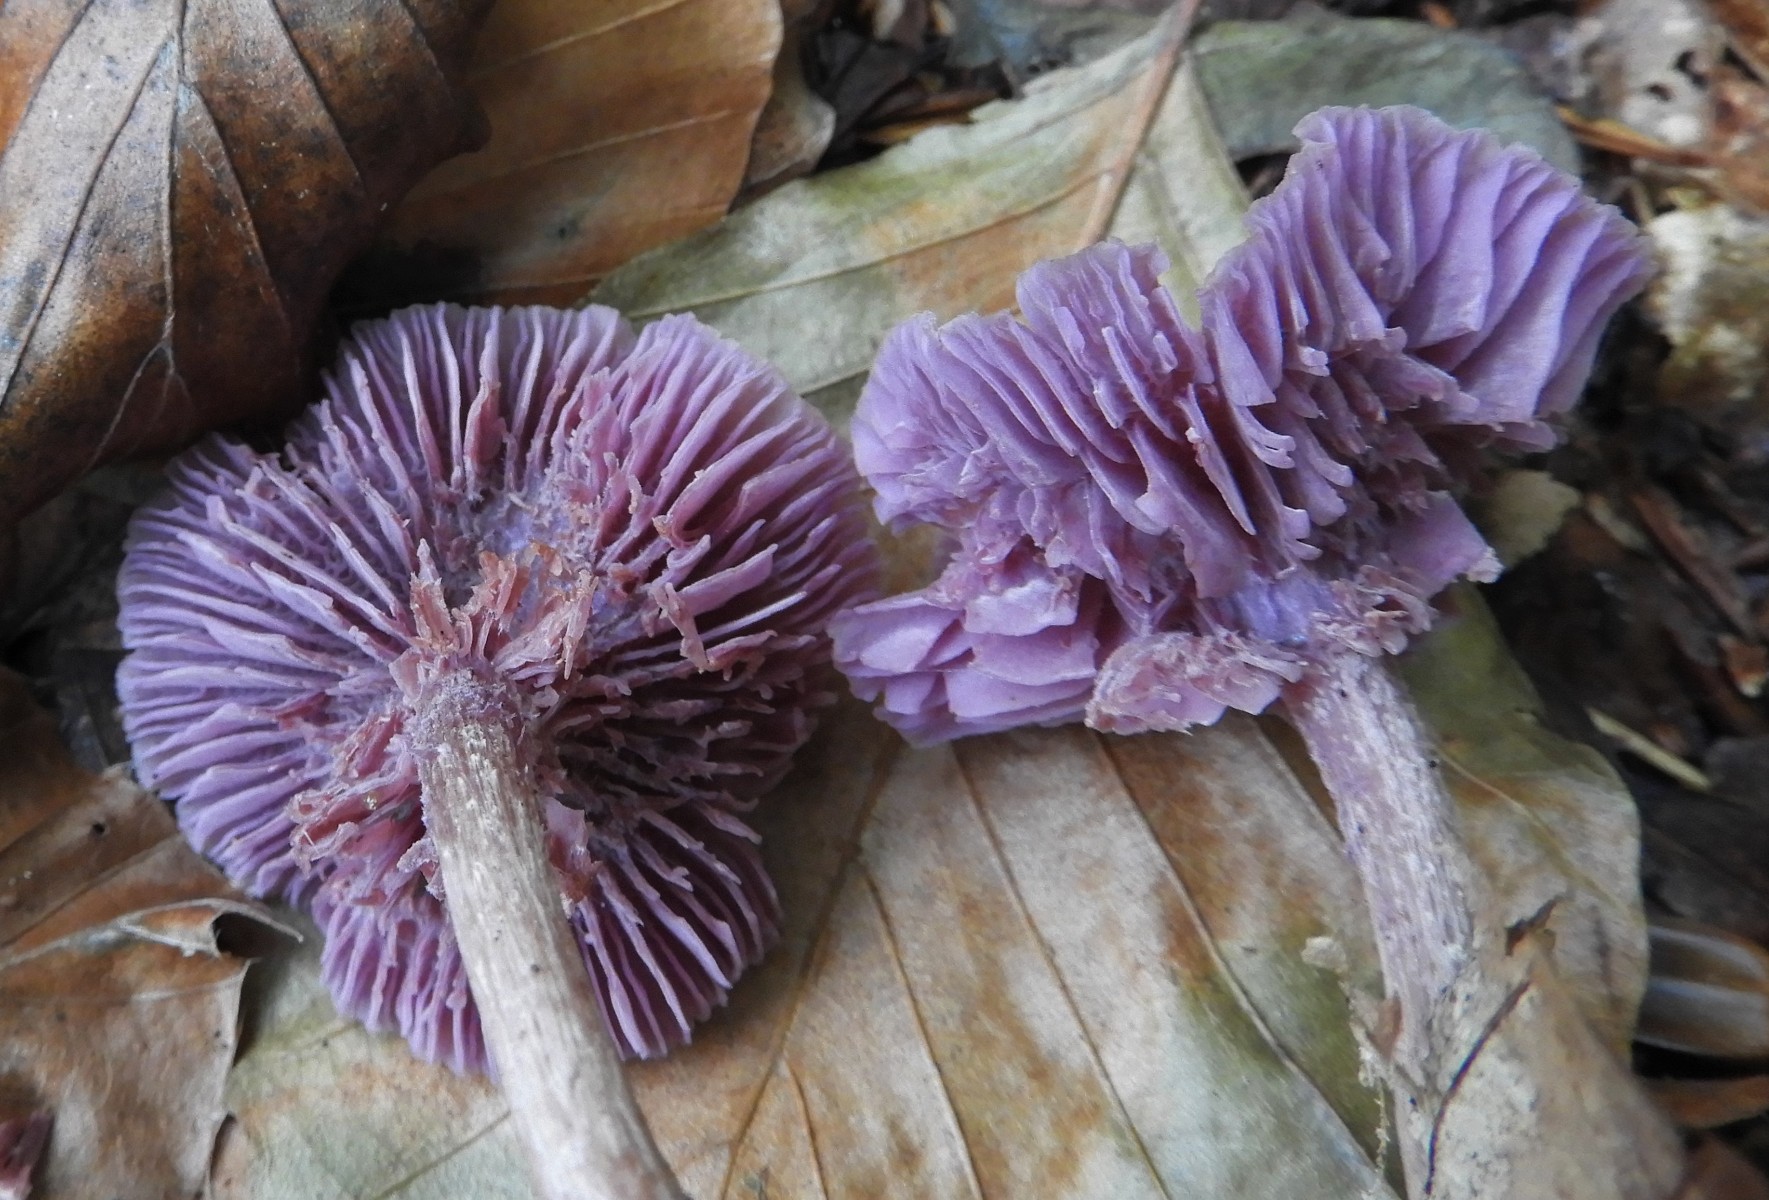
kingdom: Fungi
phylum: Basidiomycota
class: Agaricomycetes
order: Agaricales
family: Hydnangiaceae
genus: Laccaria
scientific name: Laccaria amethystina
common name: violet ametysthat
